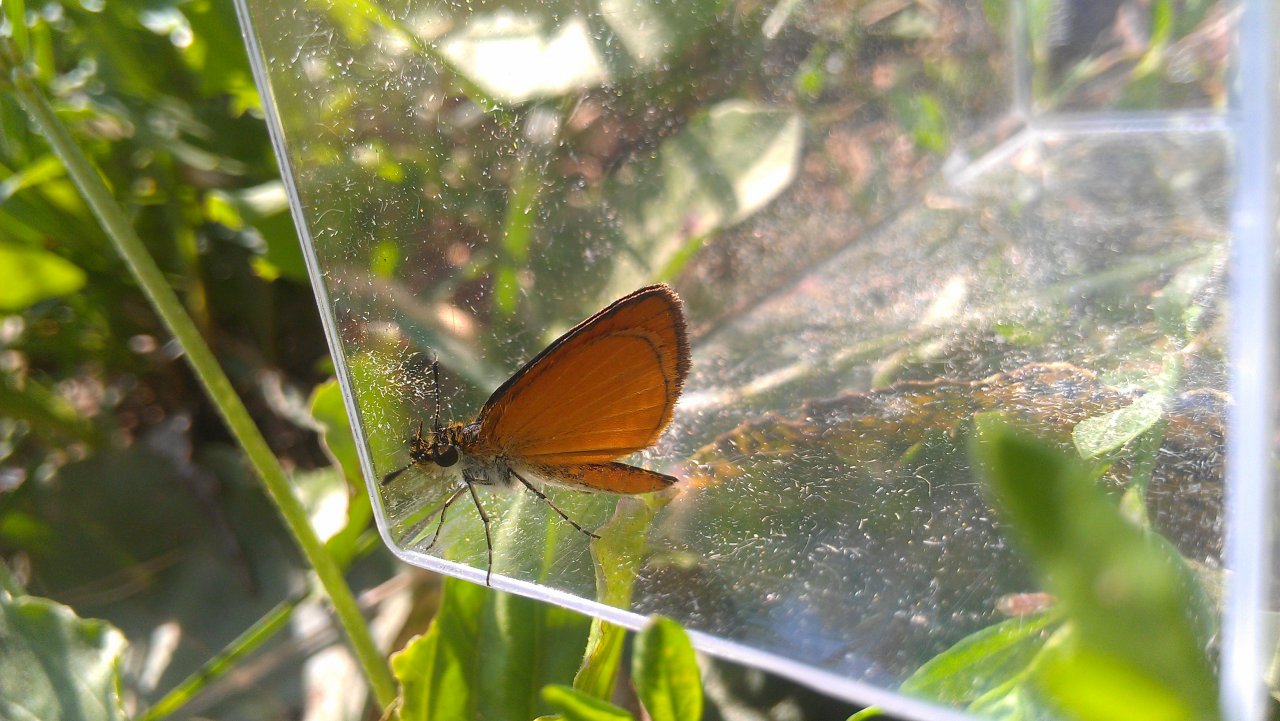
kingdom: Animalia
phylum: Arthropoda
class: Insecta
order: Lepidoptera
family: Hesperiidae
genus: Ancyloxypha
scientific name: Ancyloxypha numitor
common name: Least Skipper
